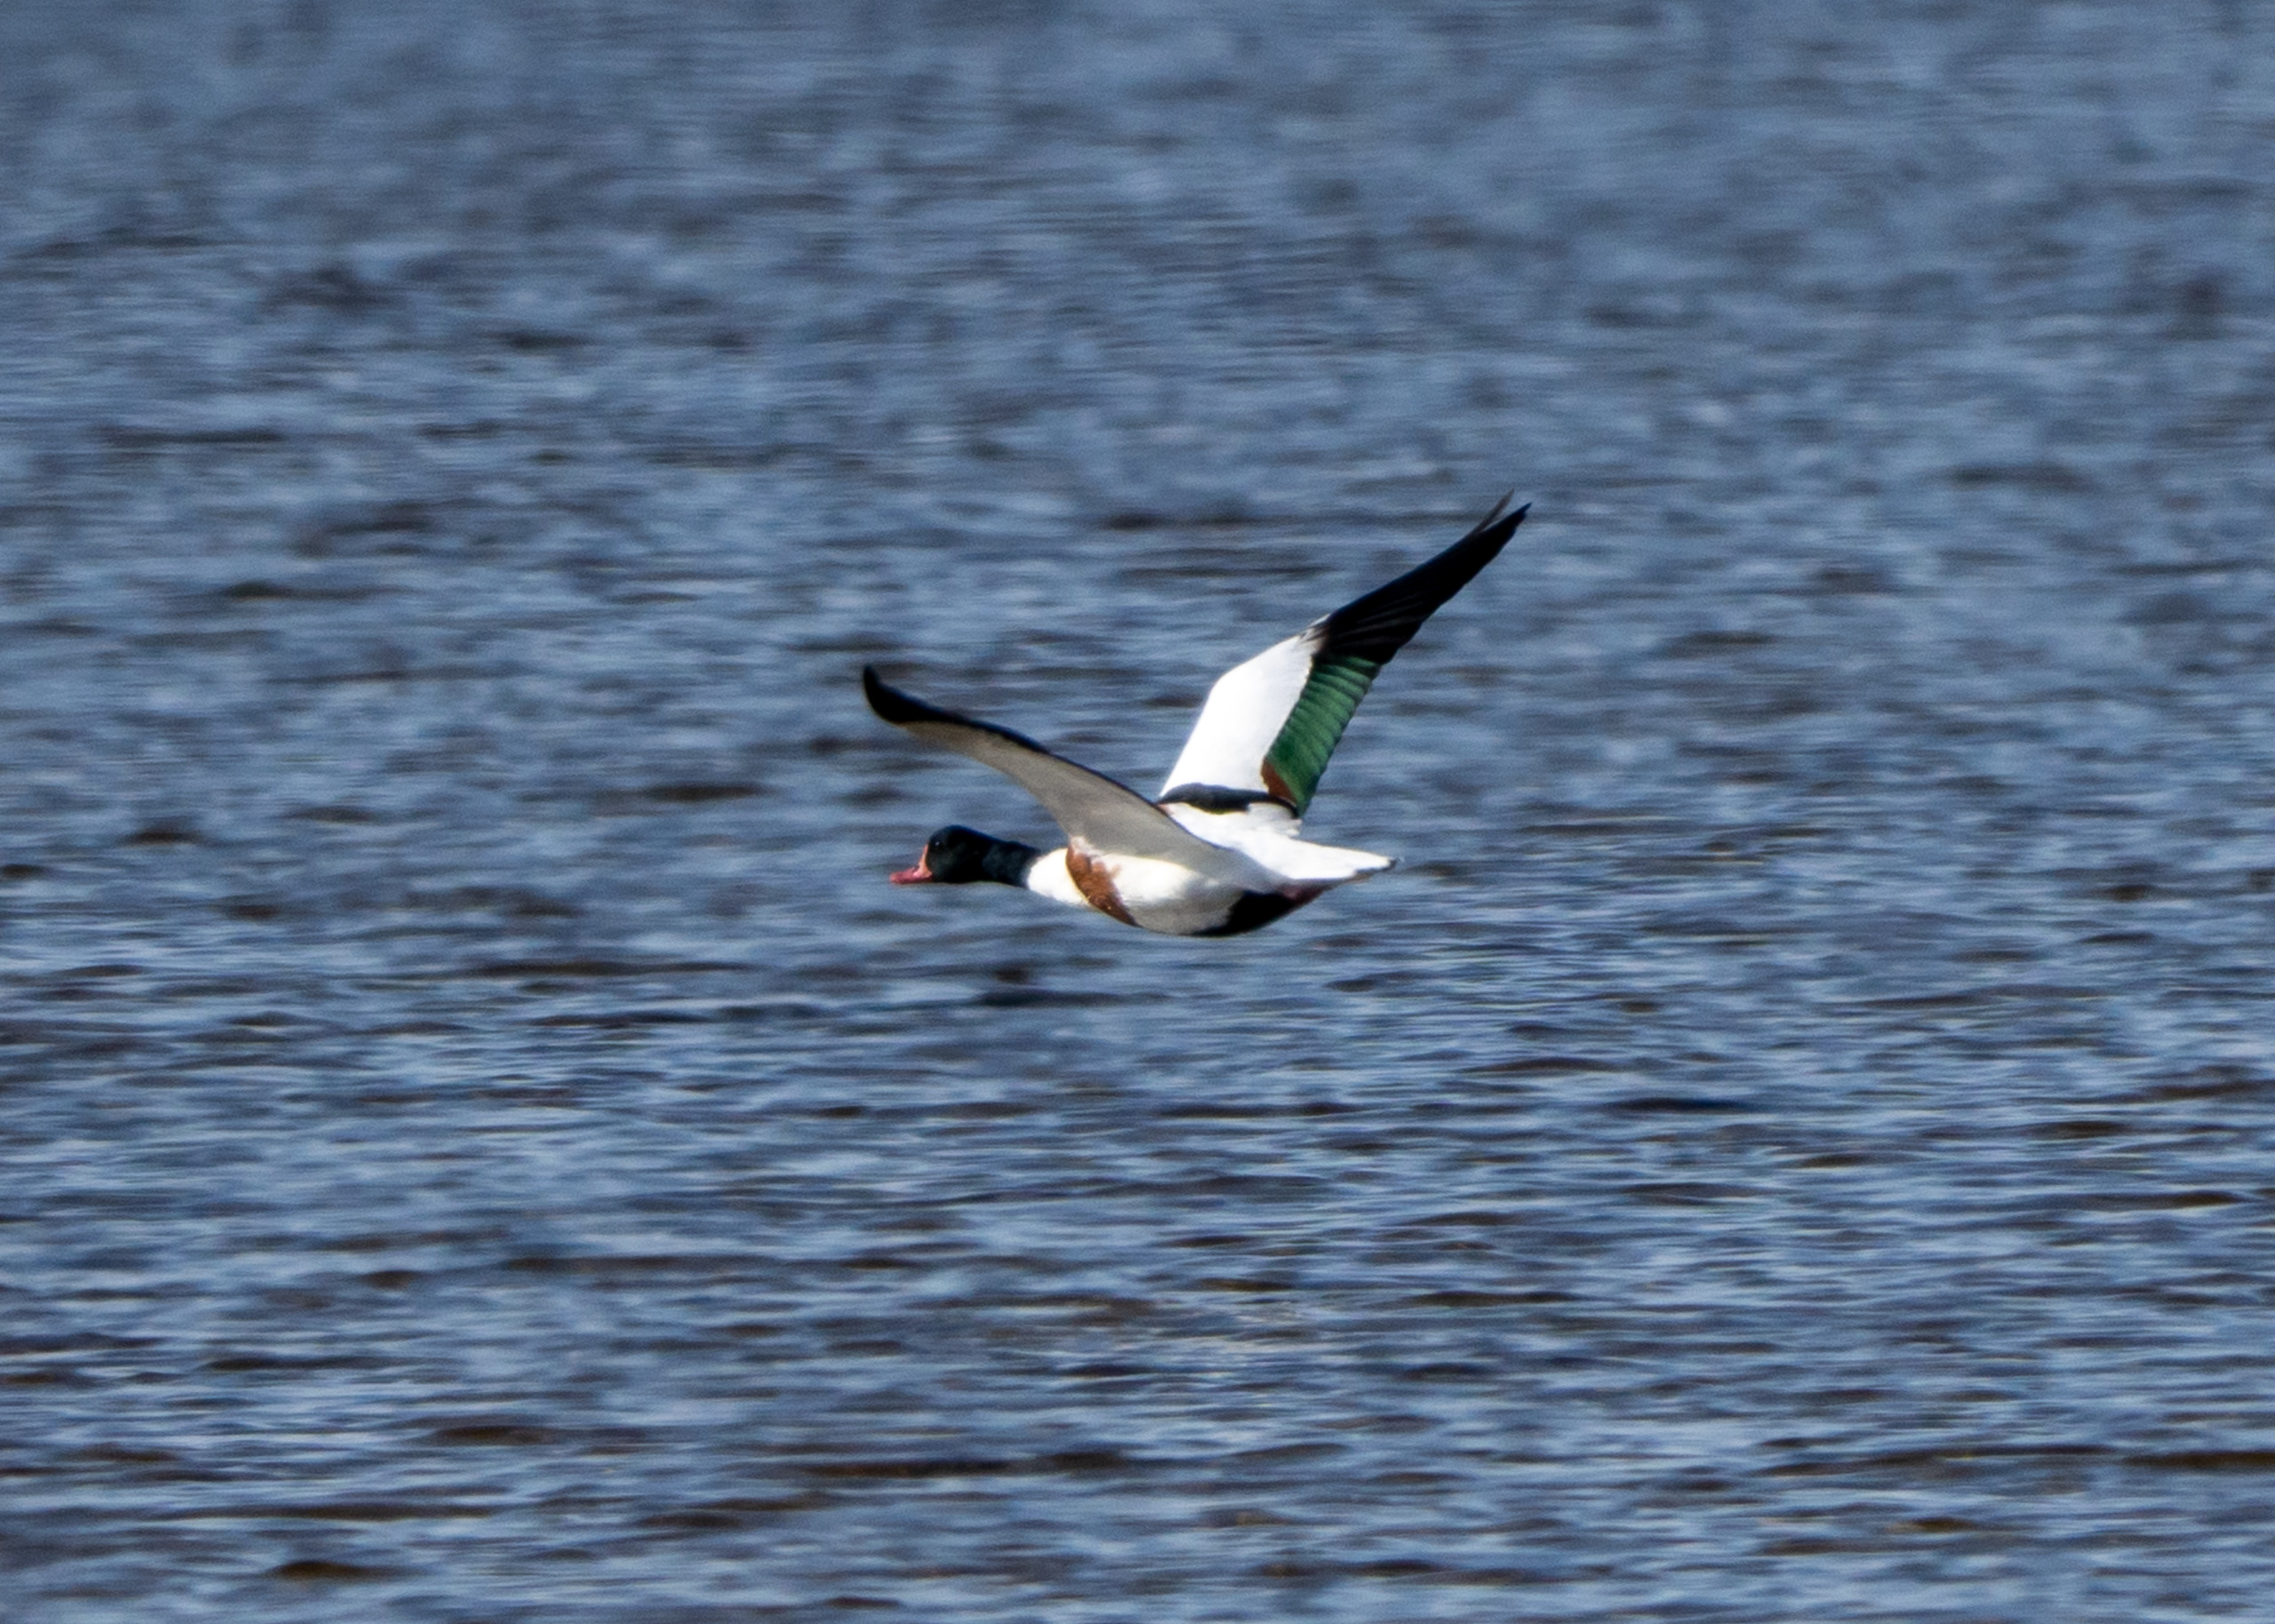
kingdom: Animalia
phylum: Chordata
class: Aves
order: Anseriformes
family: Anatidae
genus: Tadorna
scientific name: Tadorna tadorna
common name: Gravand
